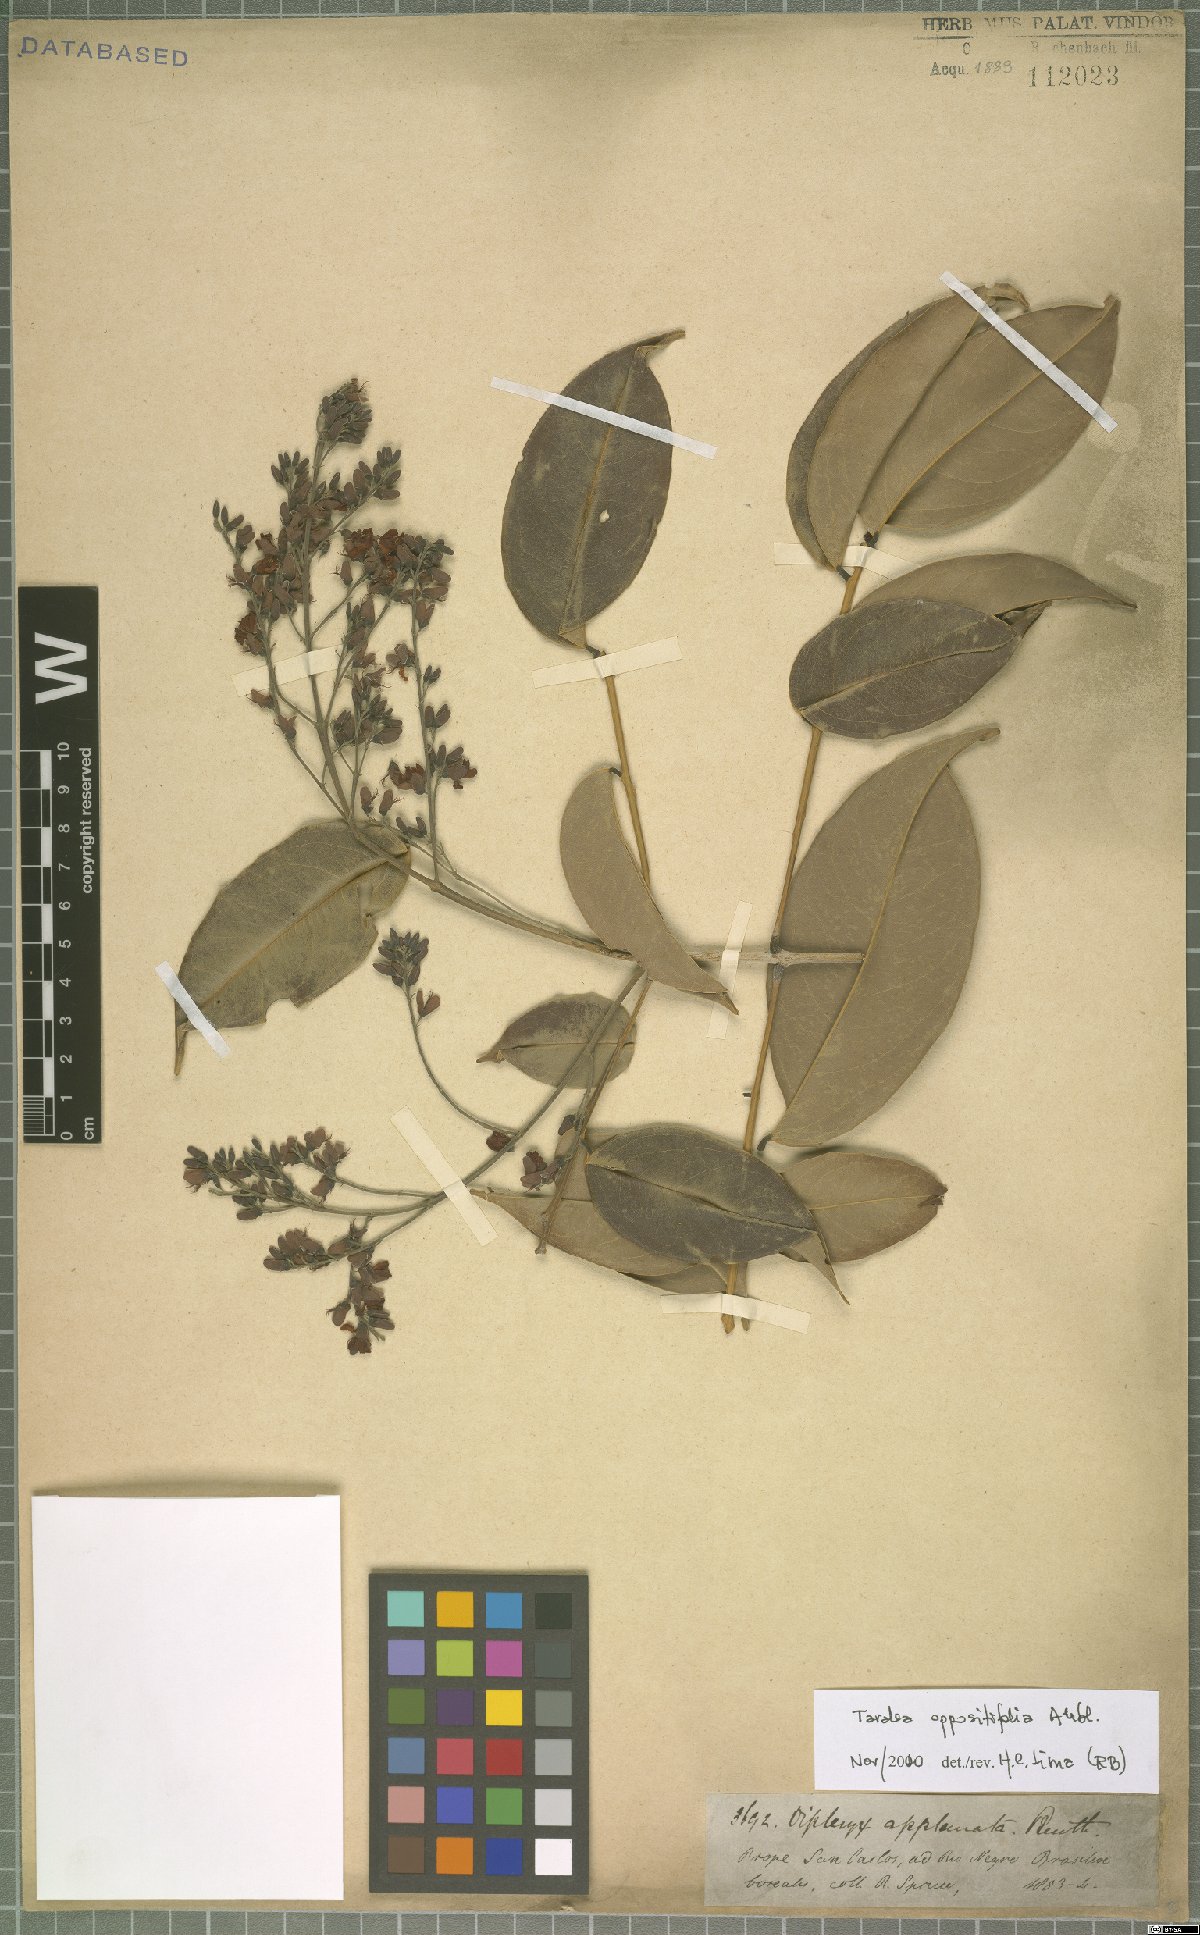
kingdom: Plantae
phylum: Tracheophyta
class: Magnoliopsida
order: Fabales
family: Fabaceae
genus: Taralea
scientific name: Taralea oppositifolia
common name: Tonka
